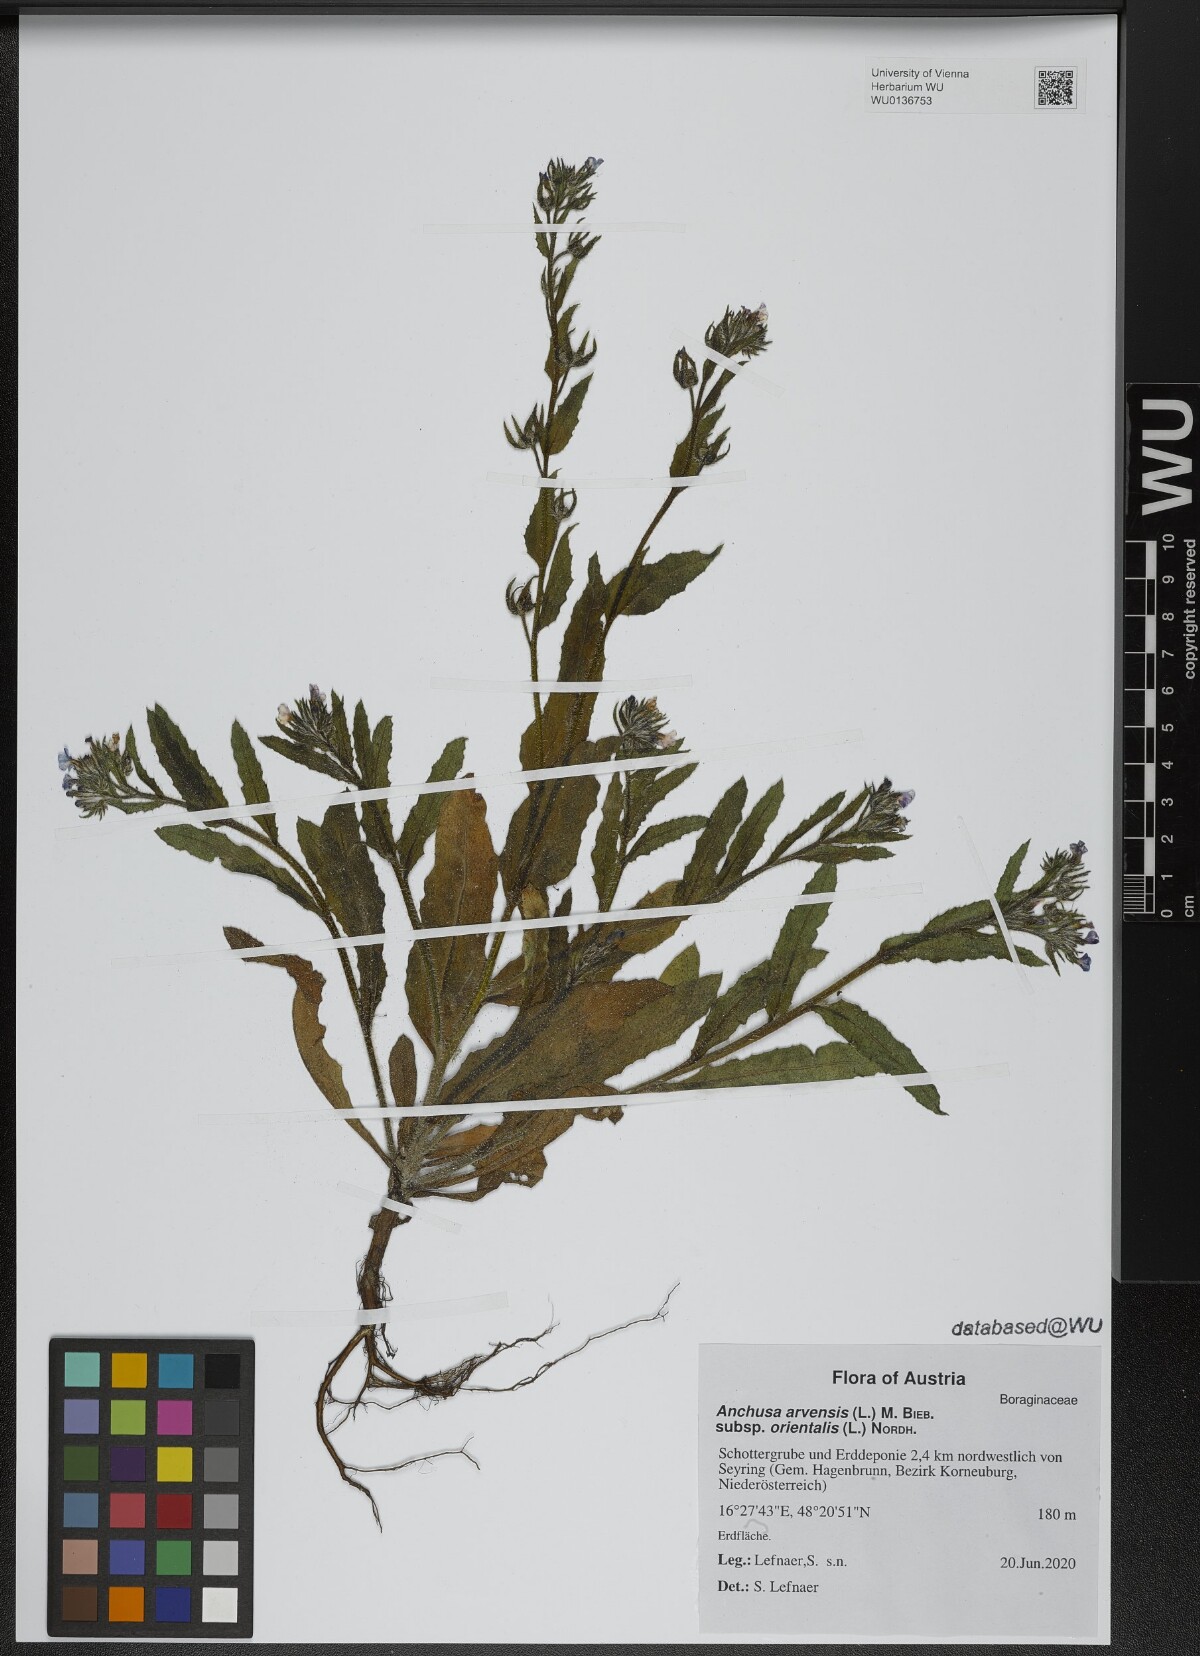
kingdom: Plantae
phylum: Tracheophyta
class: Magnoliopsida
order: Boraginales
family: Boraginaceae
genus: Lycopsis
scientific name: Lycopsis arvensis
